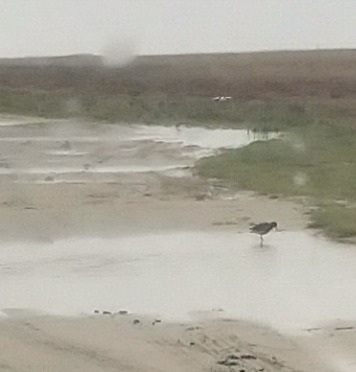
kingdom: Animalia
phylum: Chordata
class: Aves
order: Charadriiformes
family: Scolopacidae
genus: Tringa
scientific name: Tringa totanus
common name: Rødben
